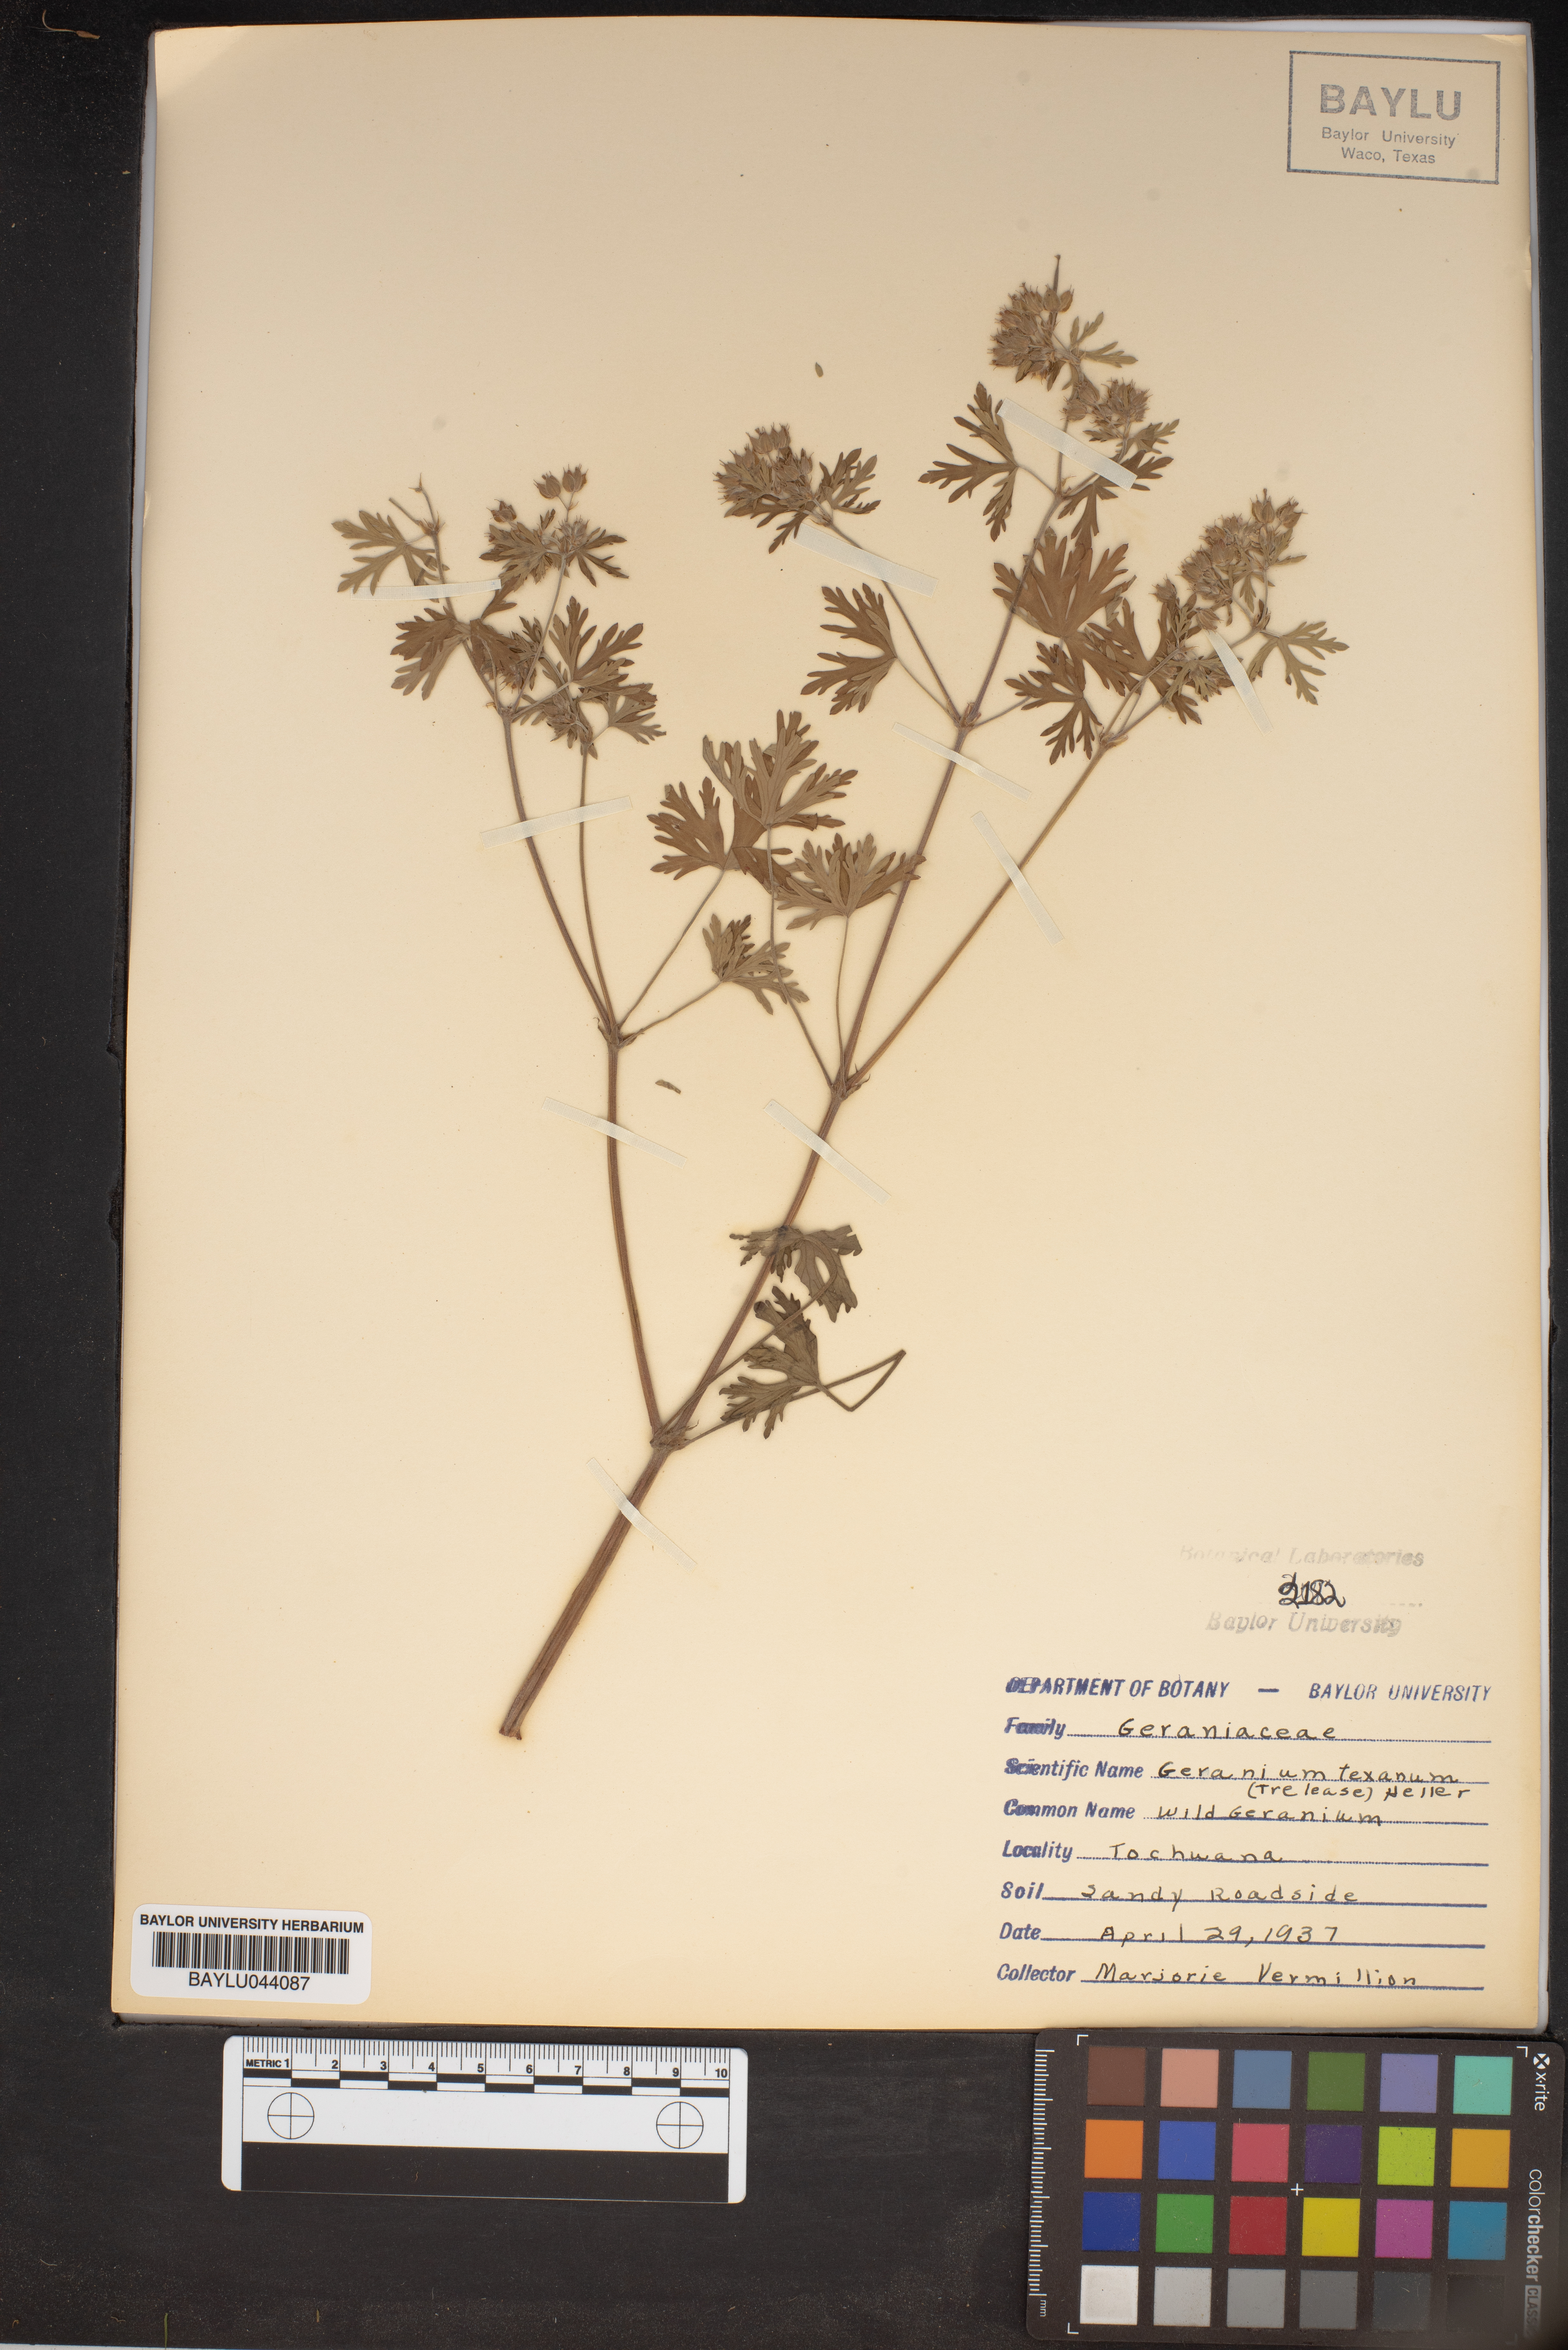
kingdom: Plantae
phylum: Tracheophyta
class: Magnoliopsida
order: Geraniales
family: Geraniaceae
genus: Geranium
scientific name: Geranium texanum
